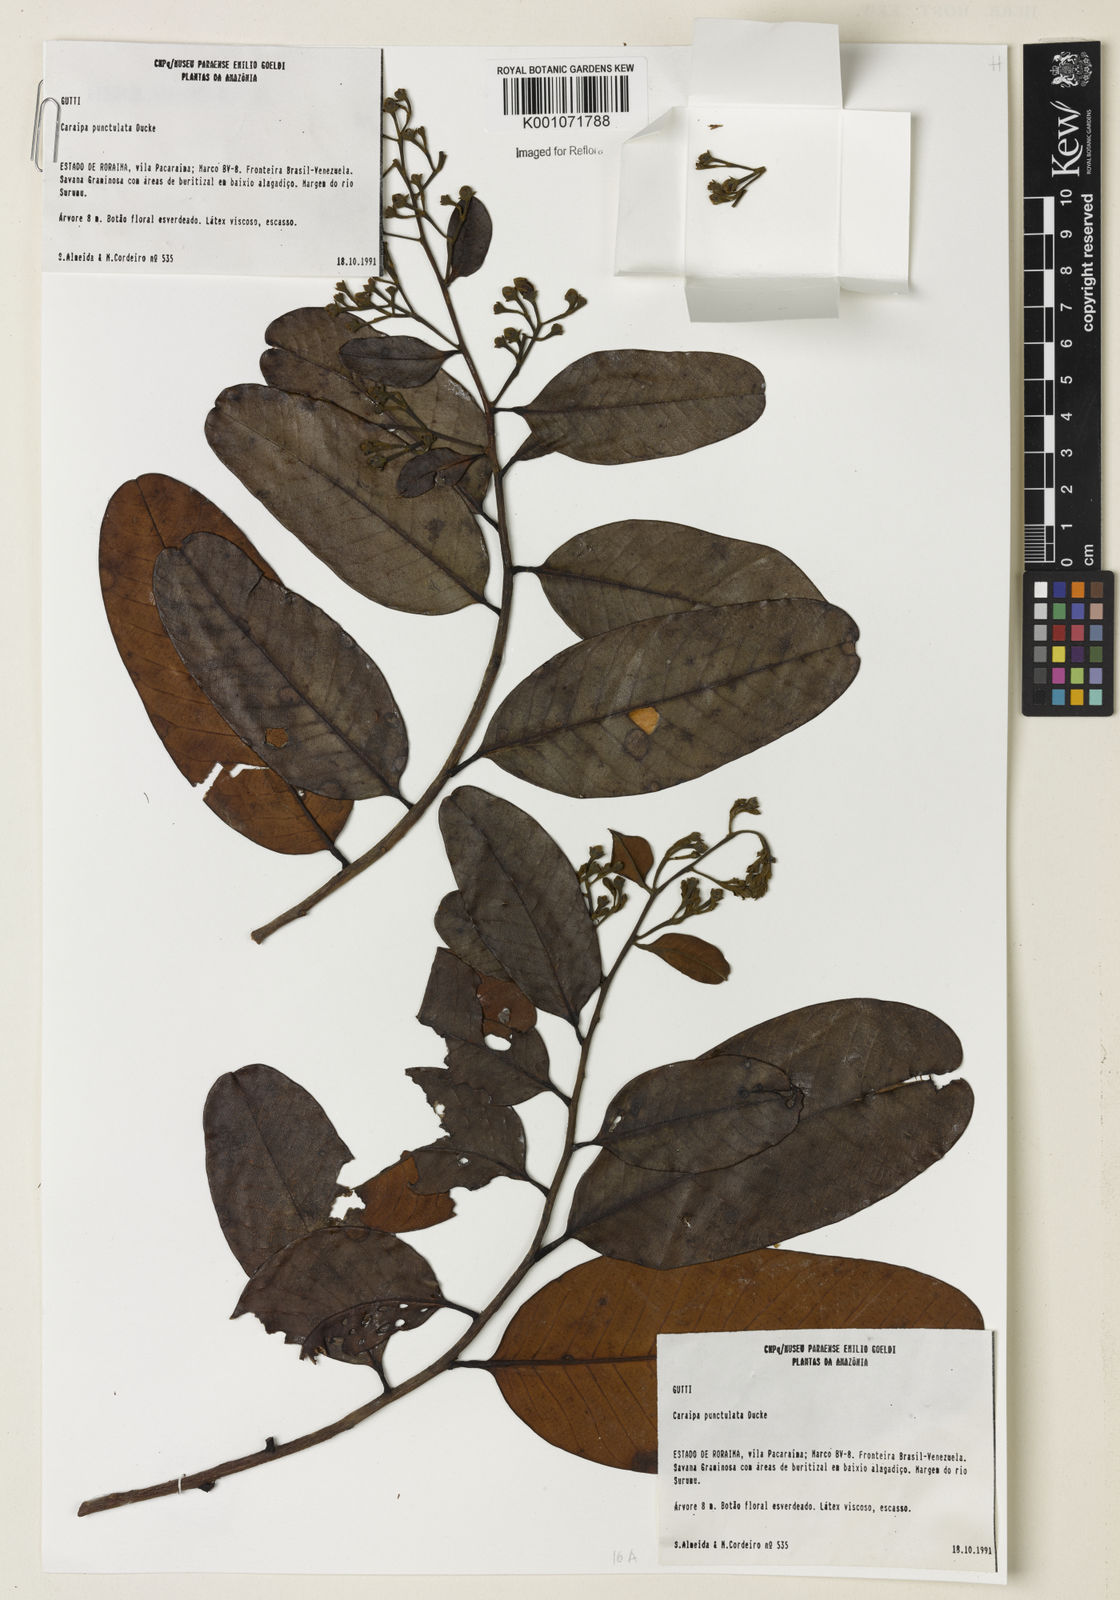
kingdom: Plantae
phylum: Tracheophyta
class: Magnoliopsida
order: Malpighiales
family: Calophyllaceae
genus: Caraipa
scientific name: Caraipa punctulata
